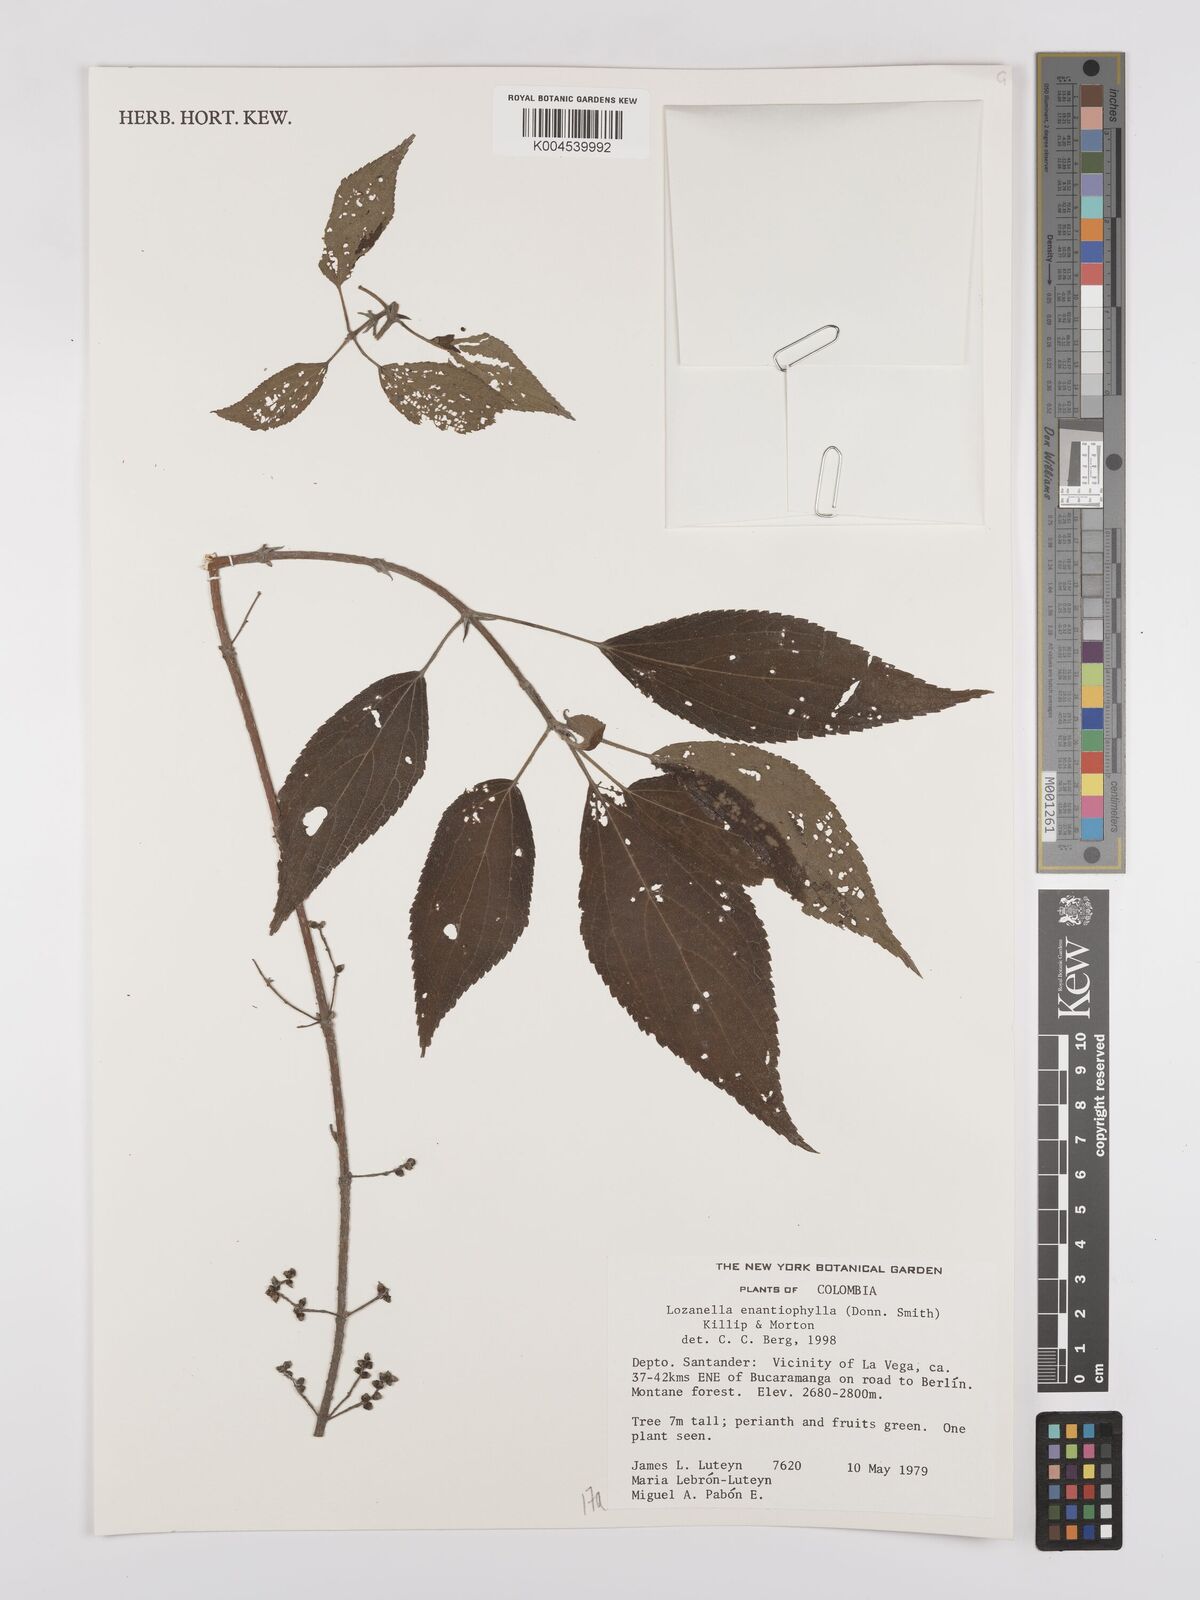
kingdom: Plantae
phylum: Tracheophyta
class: Magnoliopsida
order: Rosales
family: Cannabaceae
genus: Lozanella
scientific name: Lozanella enantiophylla
